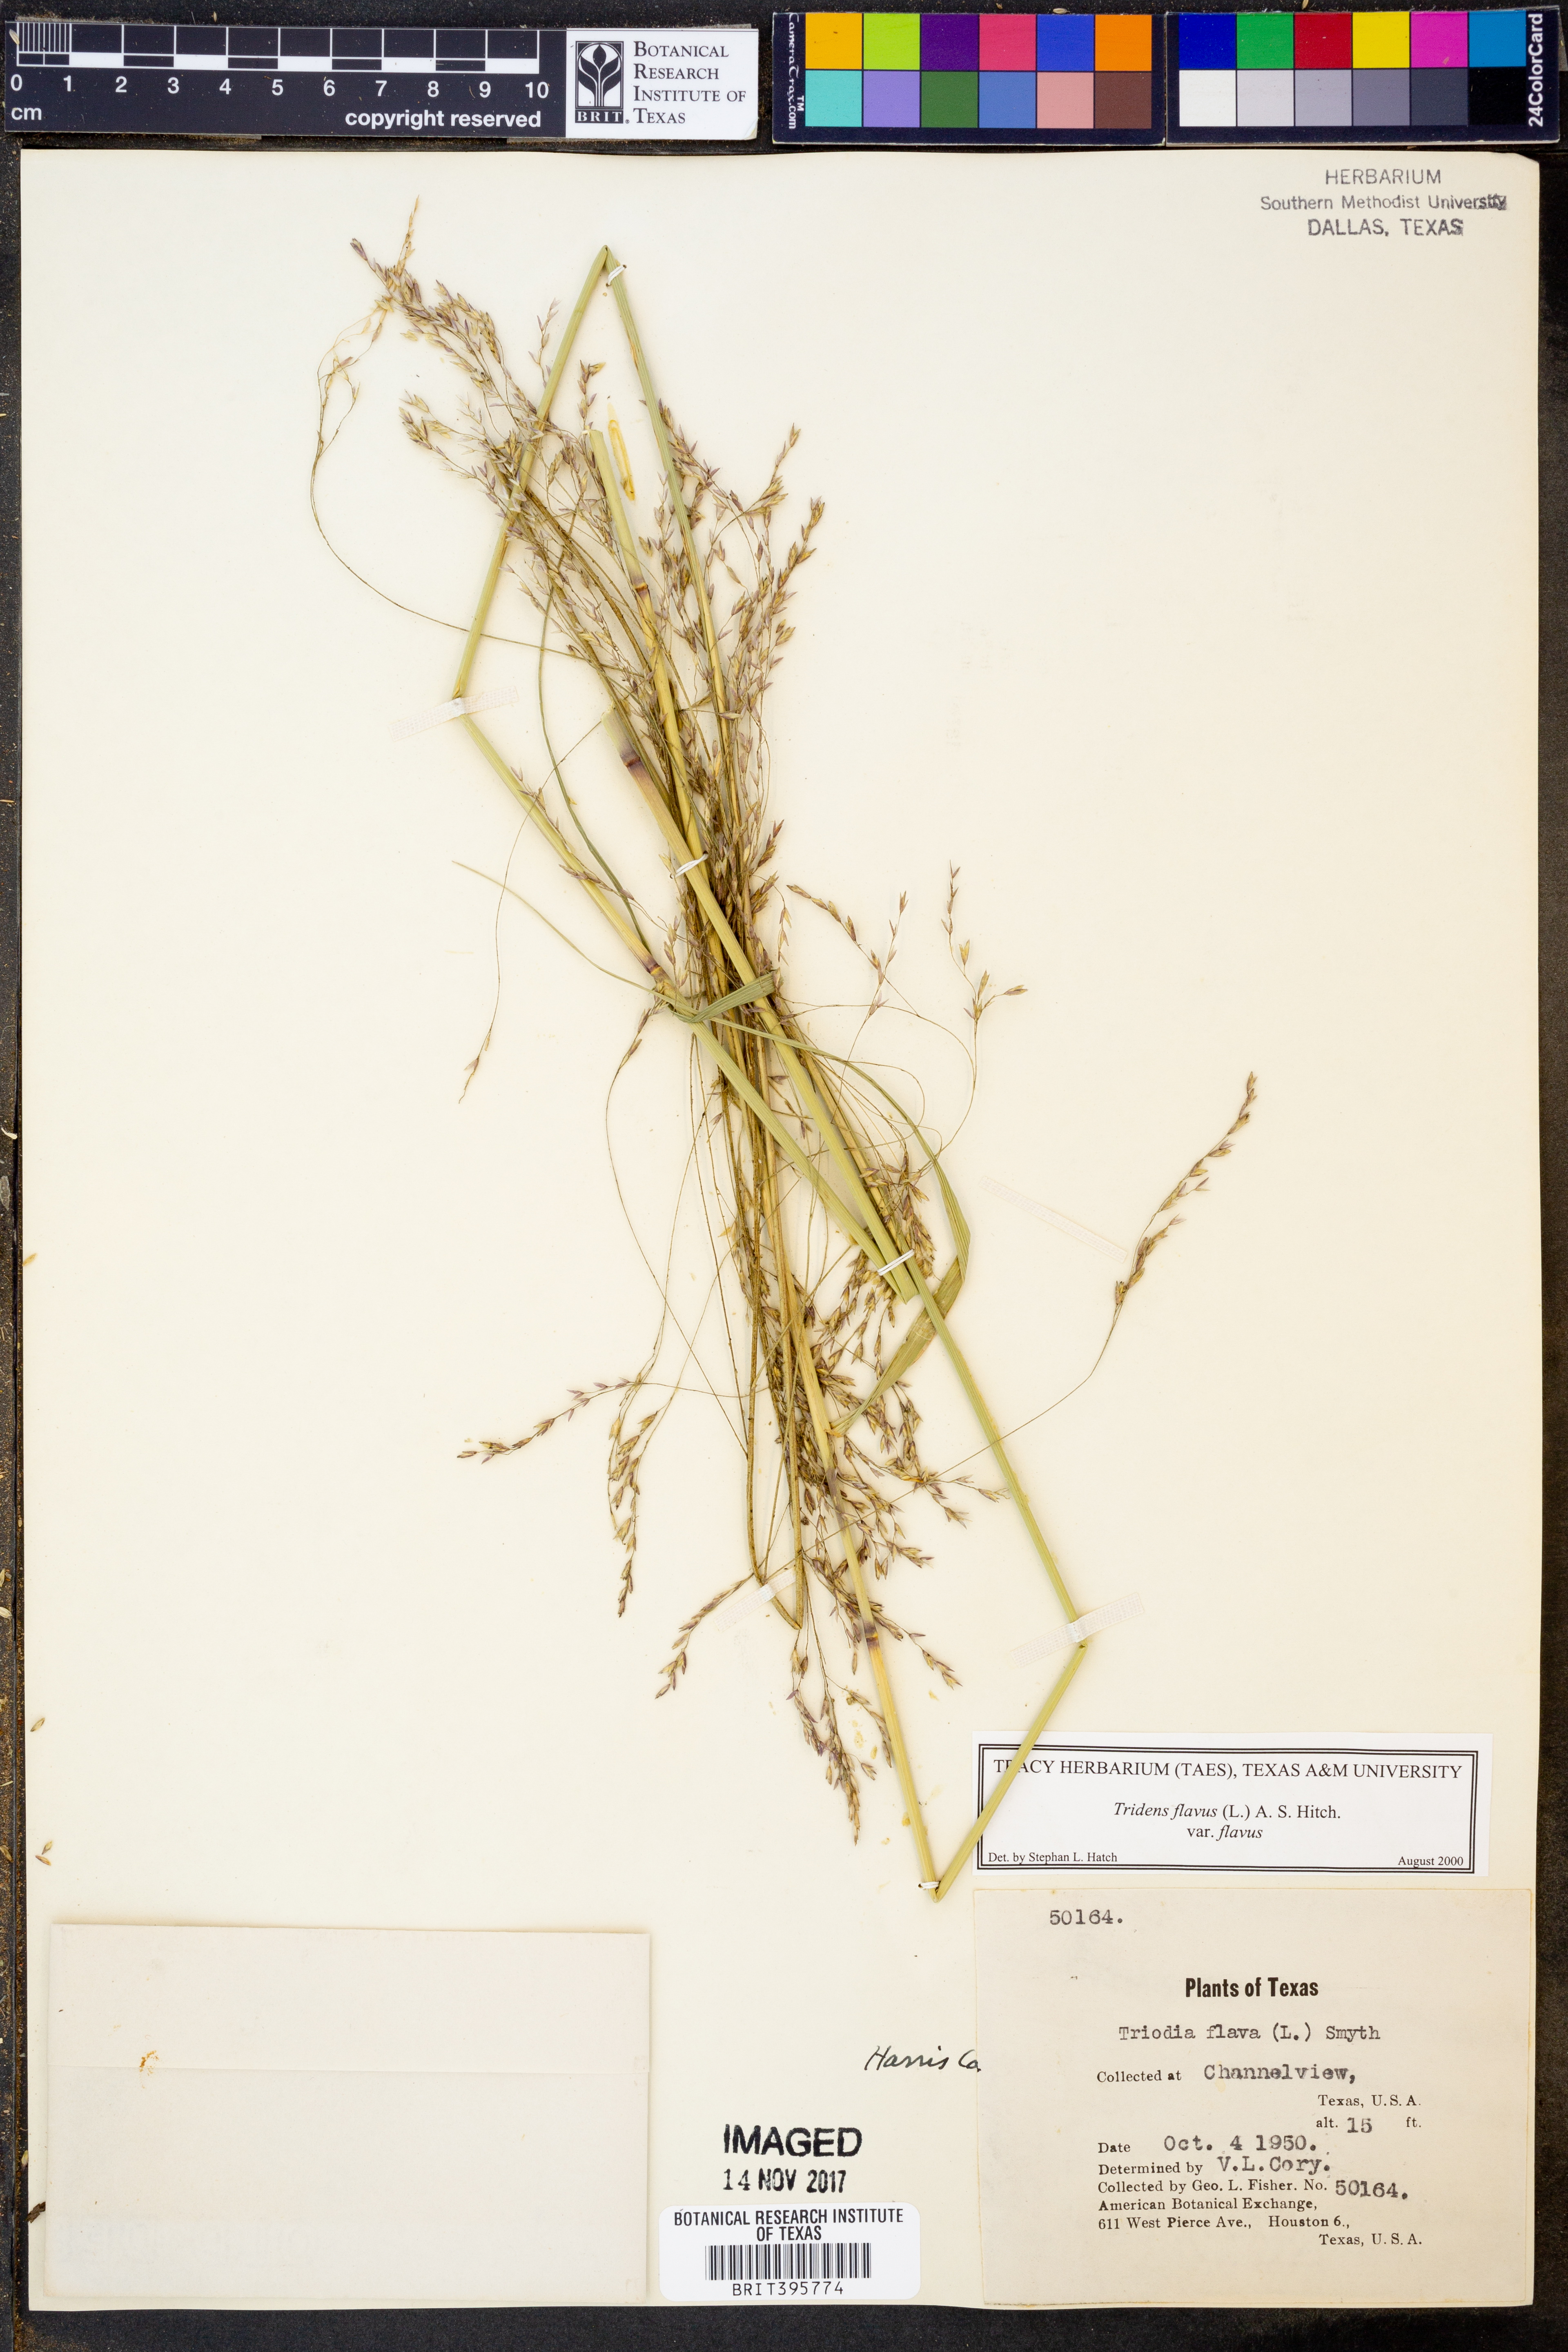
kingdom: Plantae
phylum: Tracheophyta
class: Liliopsida
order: Poales
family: Poaceae
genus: Tridens
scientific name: Tridens flavus
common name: Purpletop
